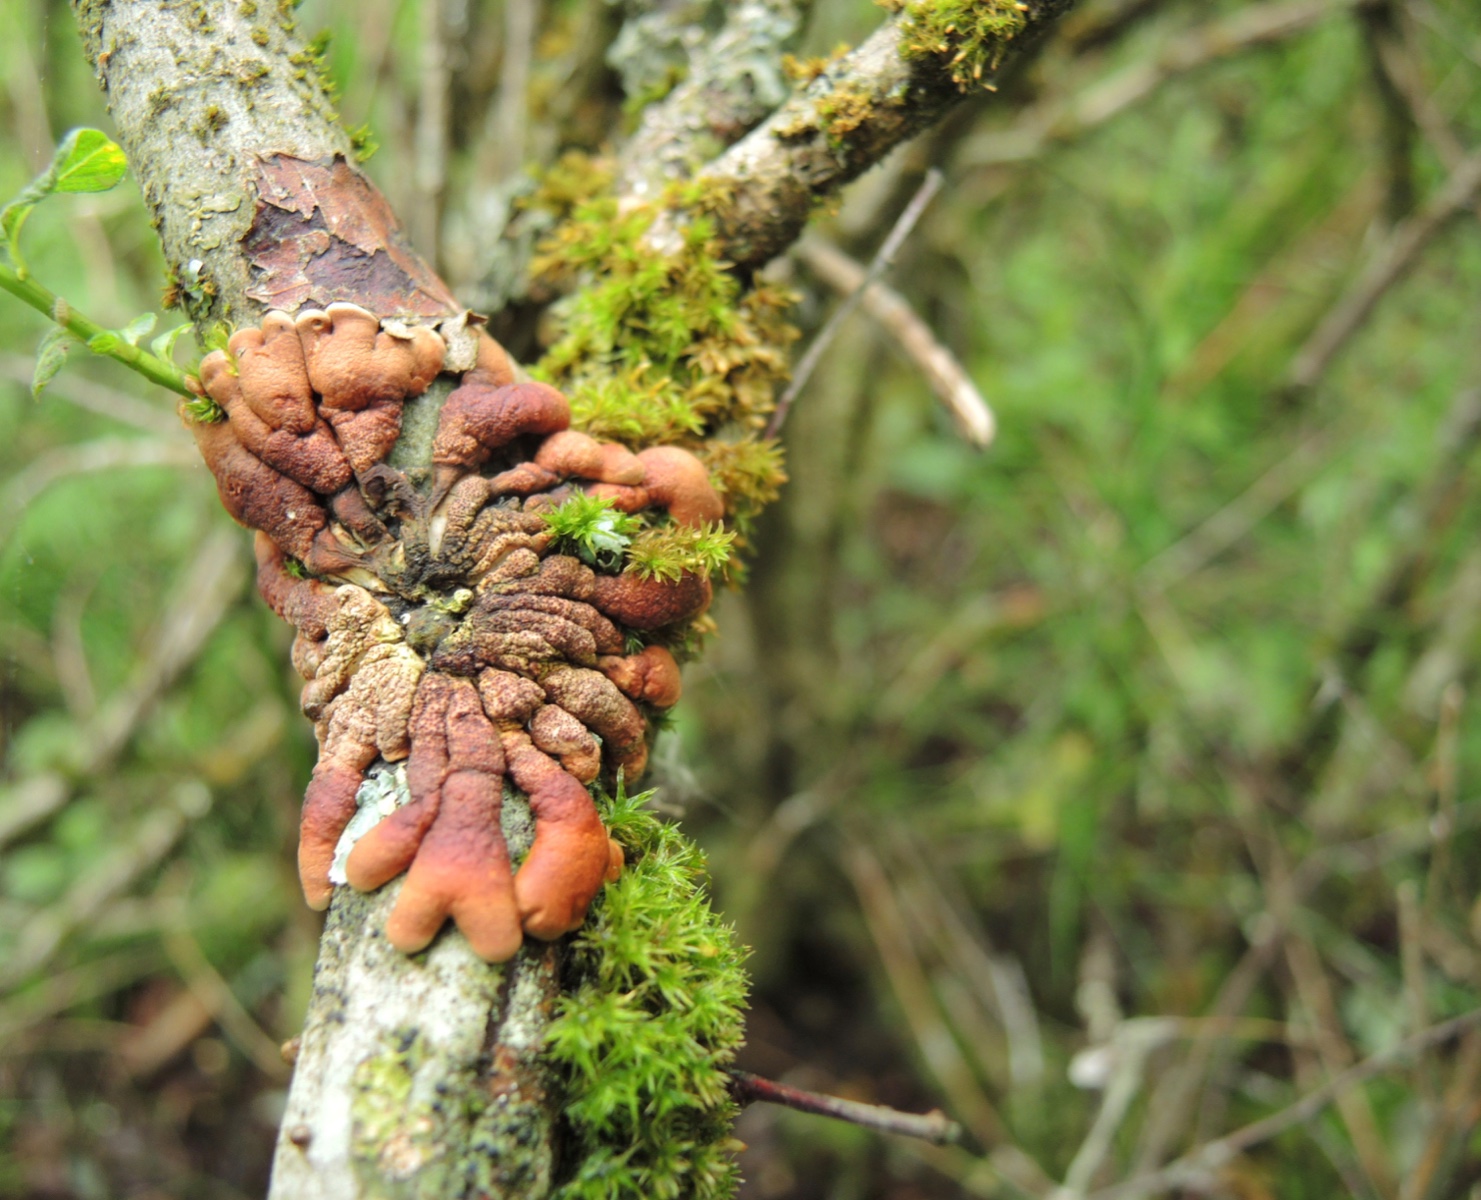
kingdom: Fungi
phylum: Ascomycota
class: Sordariomycetes
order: Hypocreales
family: Hypocreaceae
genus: Hypocreopsis
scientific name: Hypocreopsis lichenoides
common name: pilfinger
